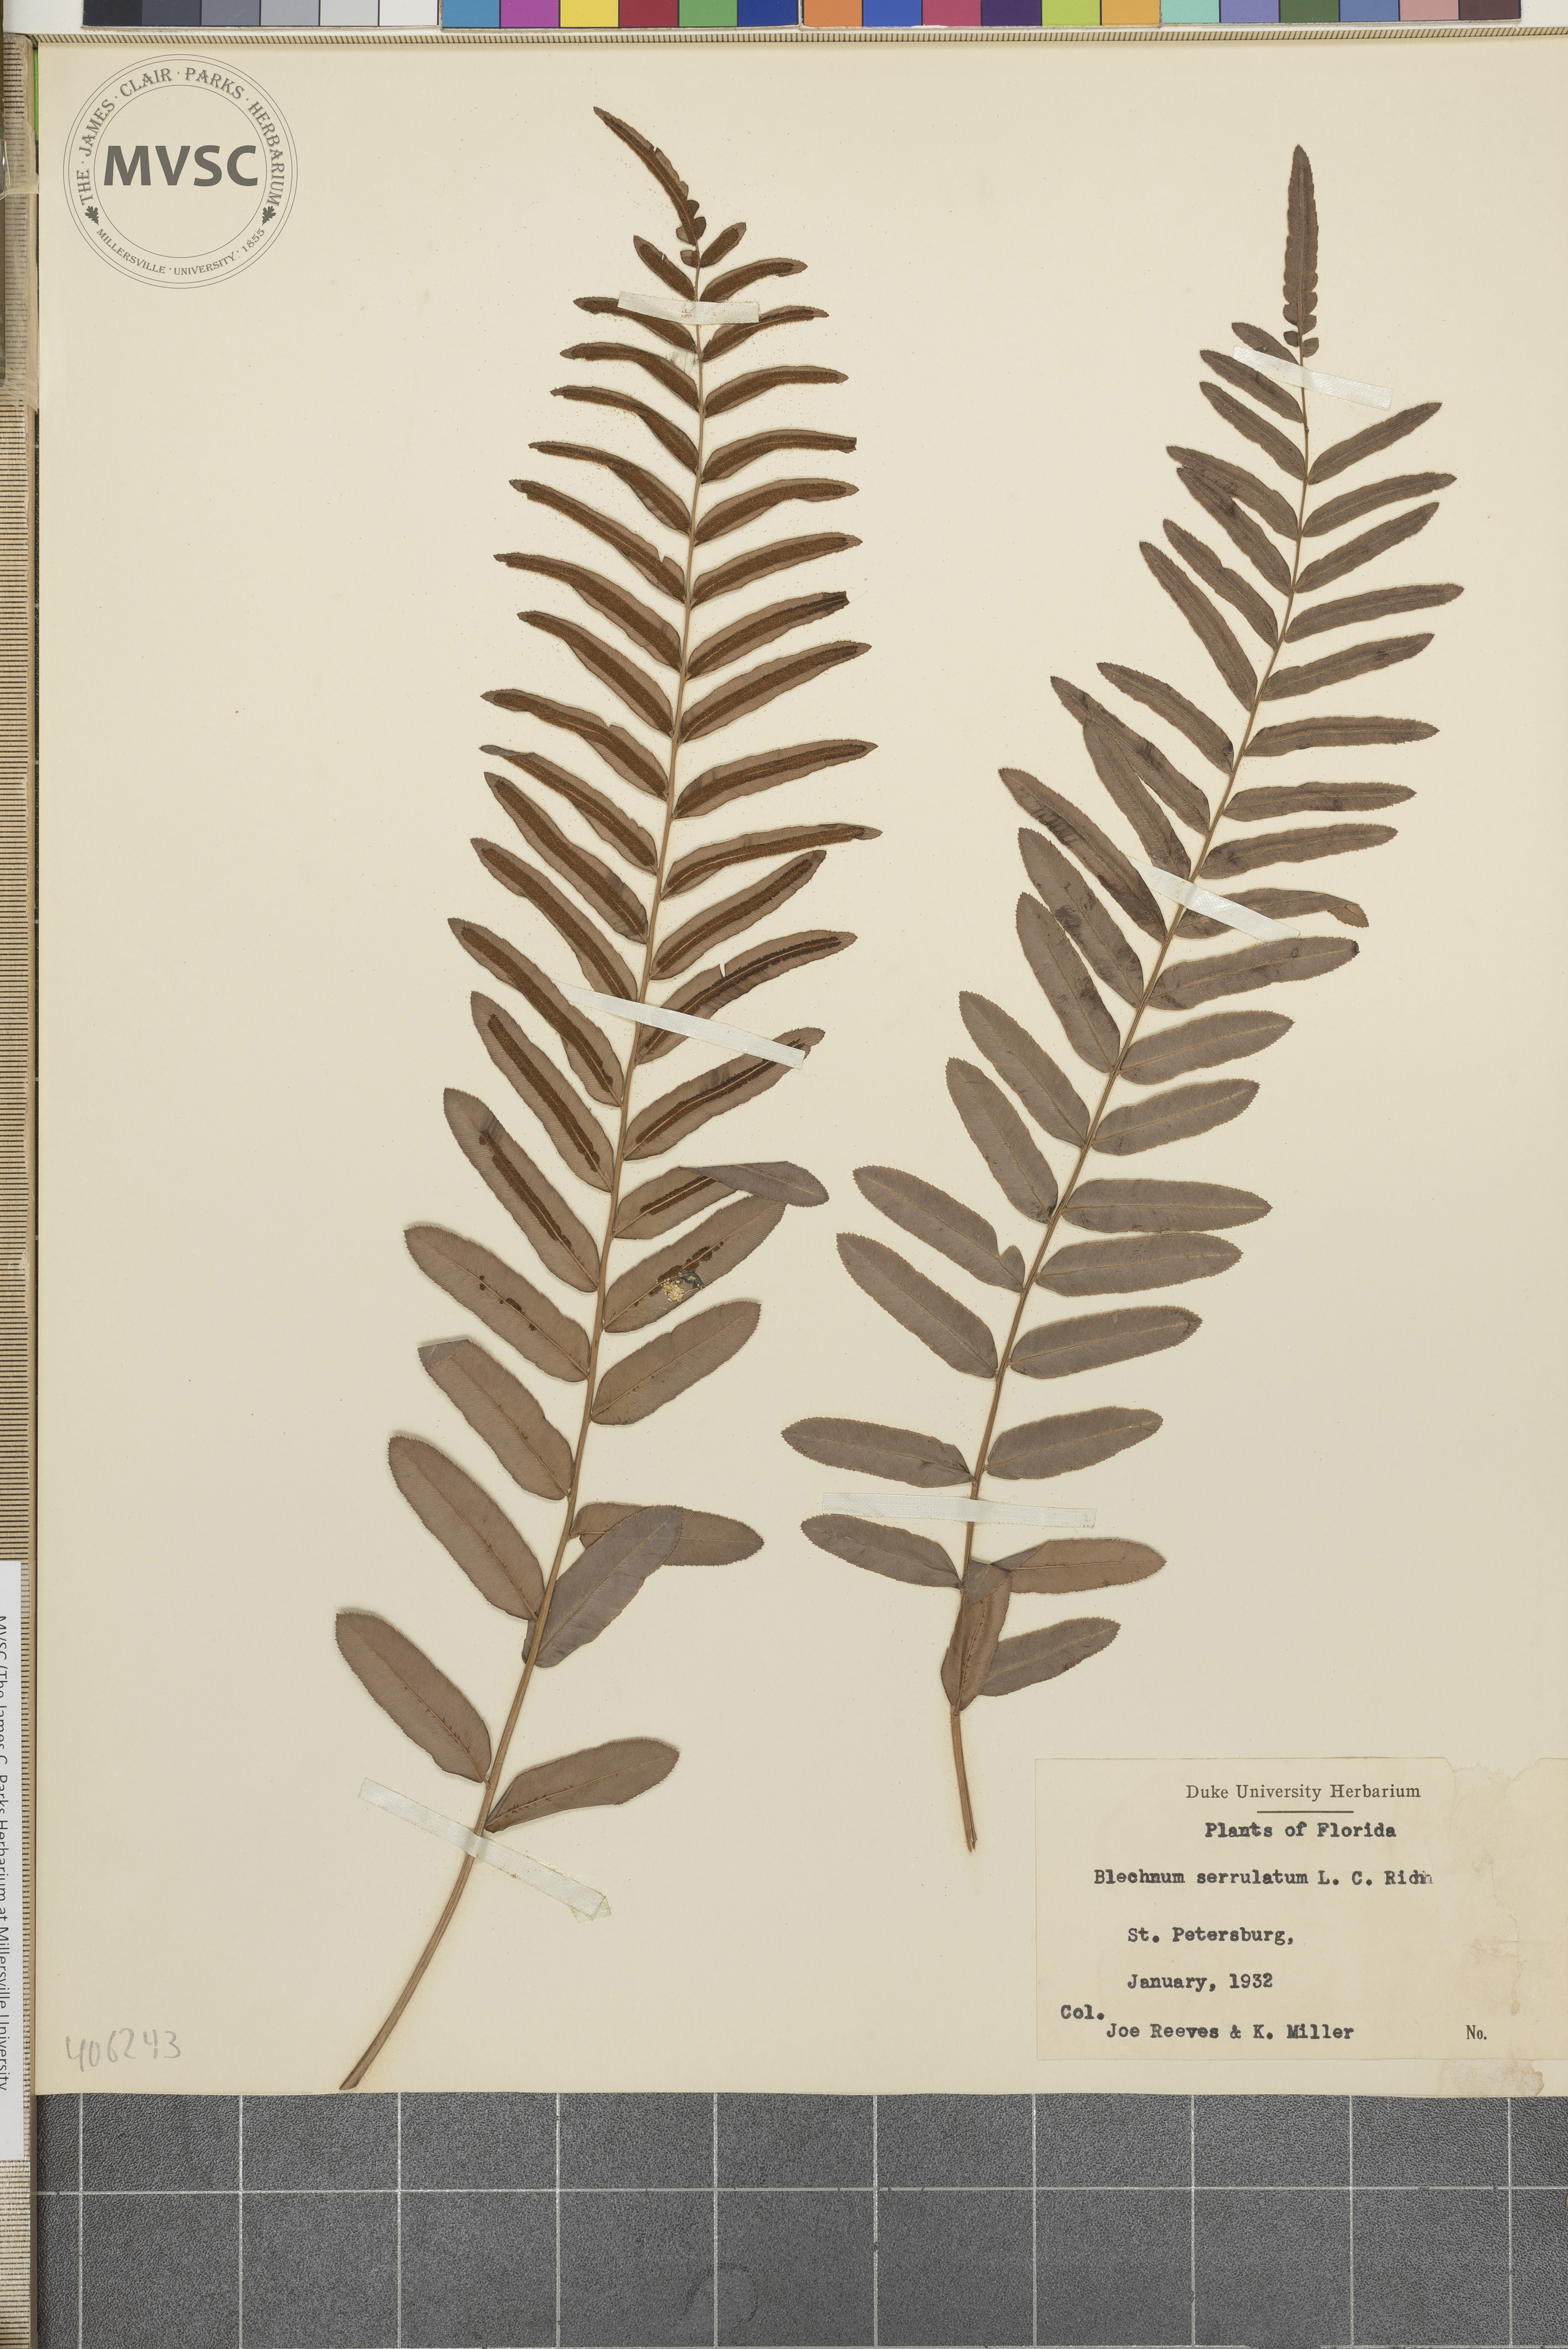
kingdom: Plantae
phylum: Tracheophyta
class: Polypodiopsida
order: Polypodiales
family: Blechnaceae
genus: Telmatoblechnum
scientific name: Telmatoblechnum serrulatum
